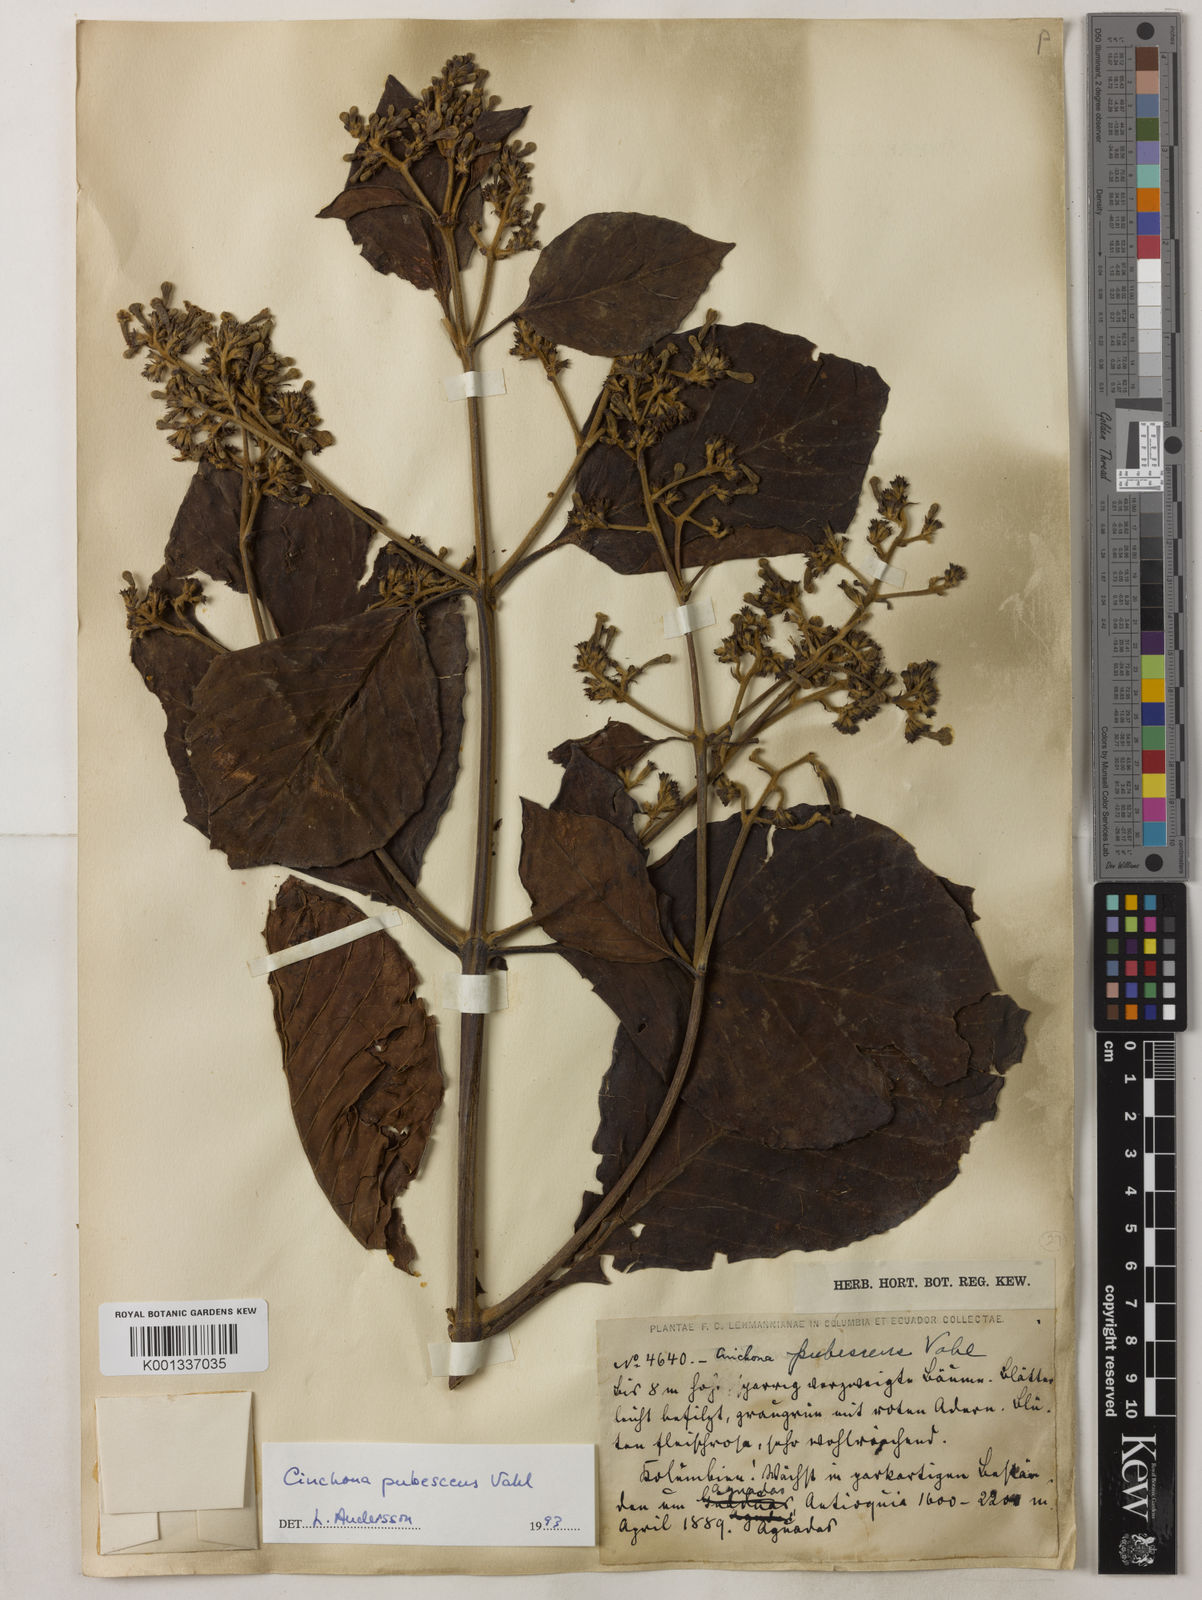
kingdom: Plantae
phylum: Tracheophyta
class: Magnoliopsida
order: Gentianales
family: Rubiaceae
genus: Cinchona
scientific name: Cinchona pubescens
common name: Quinine
